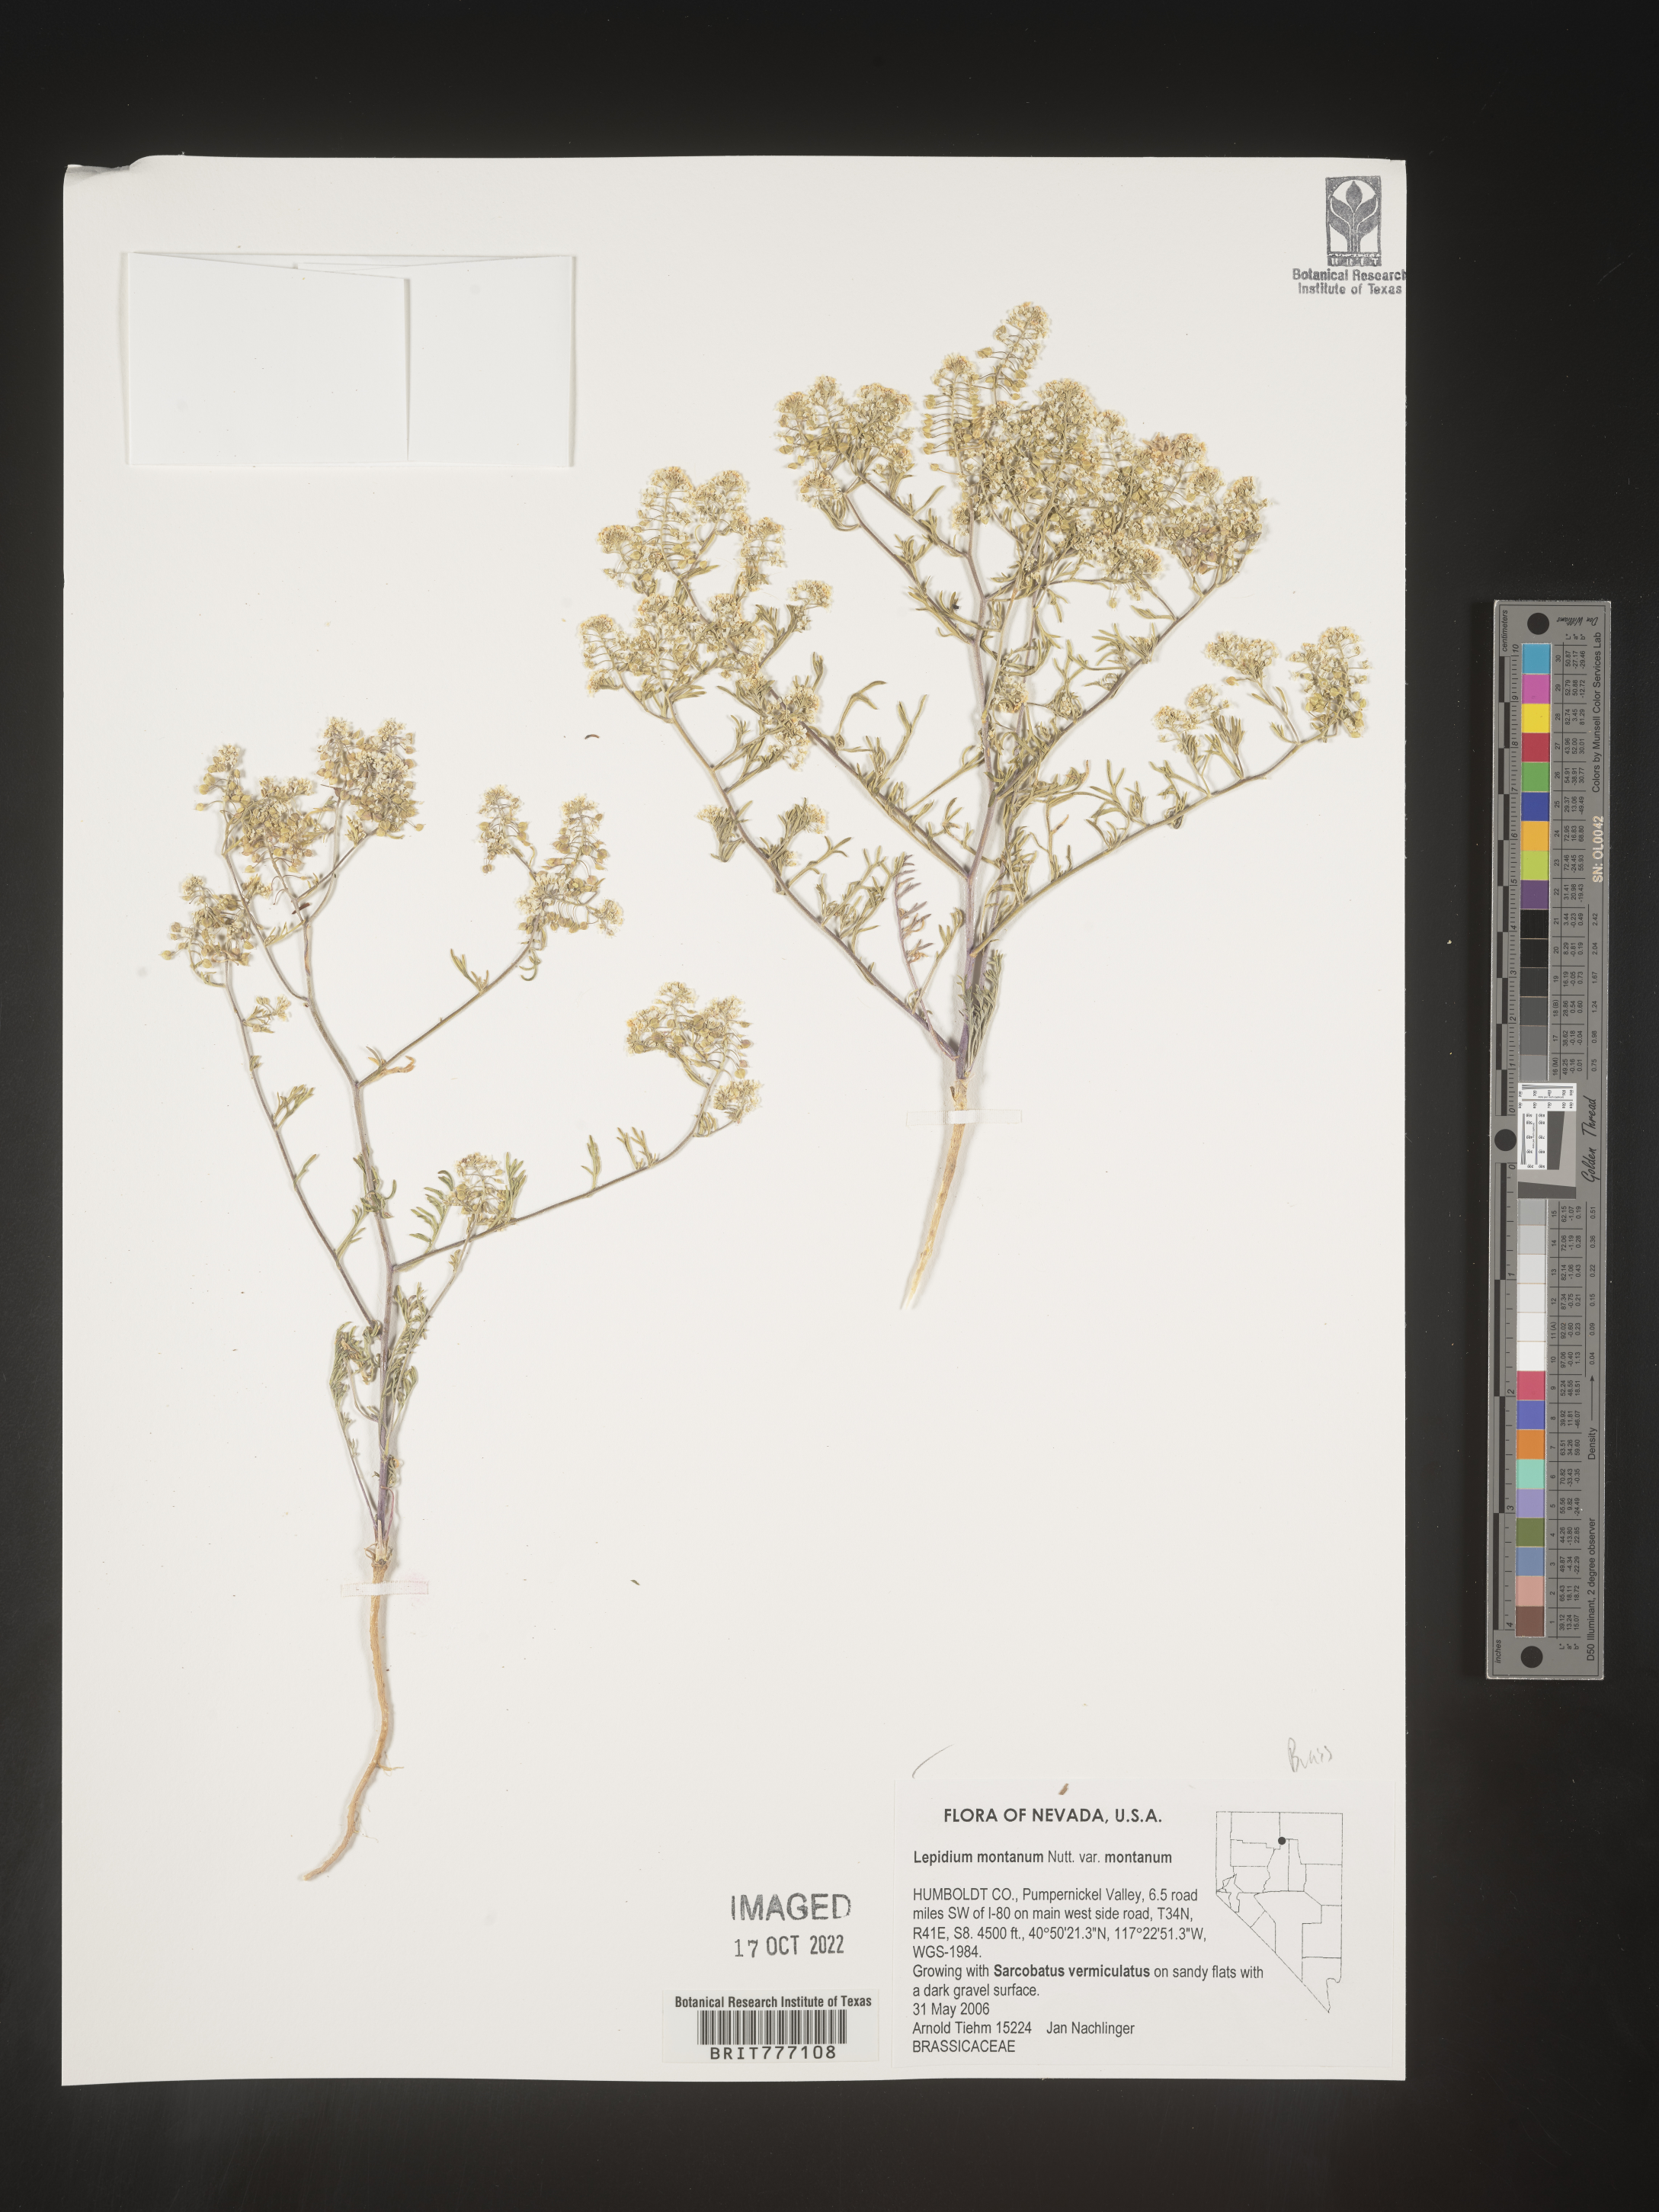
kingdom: Plantae
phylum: Tracheophyta
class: Magnoliopsida
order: Brassicales
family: Brassicaceae
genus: Lepidium
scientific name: Lepidium
